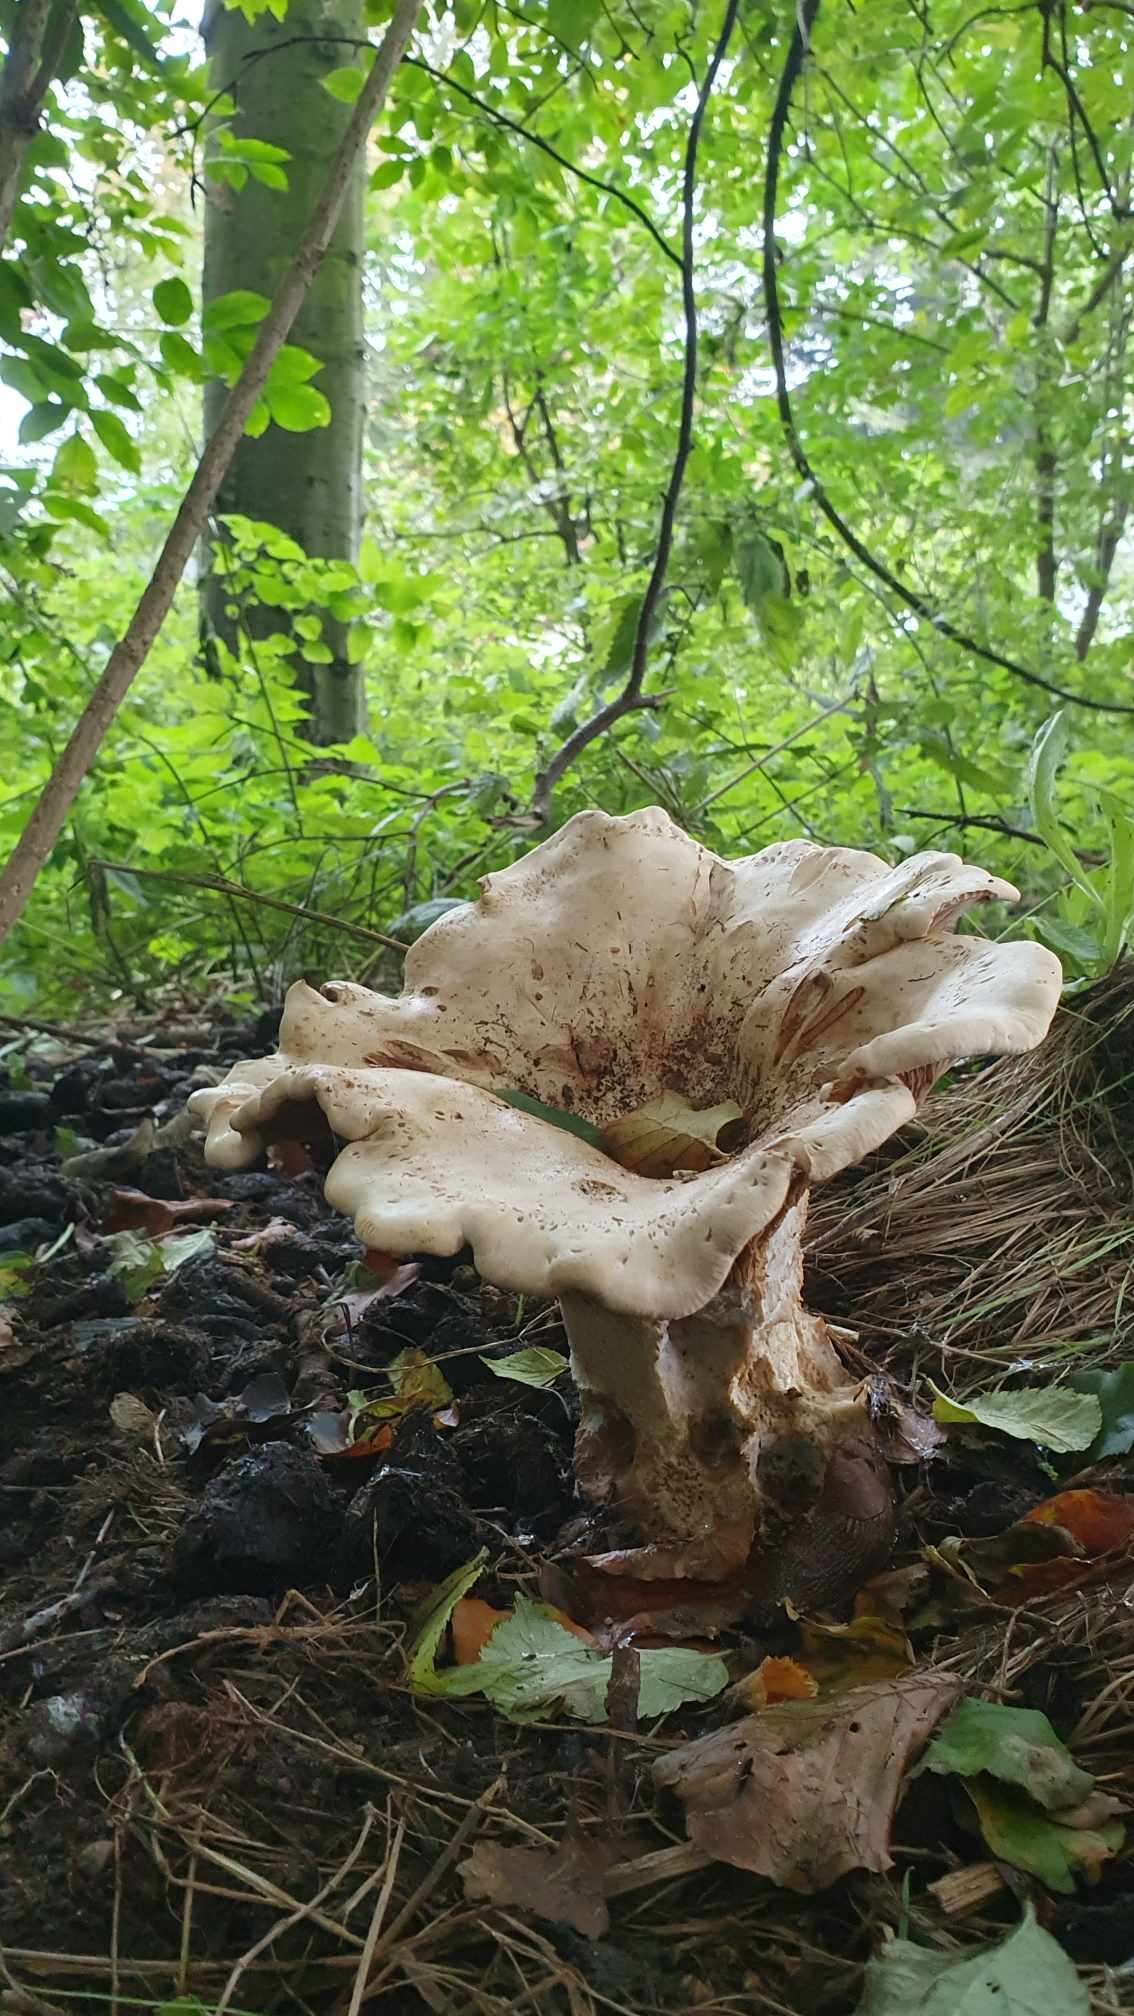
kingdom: Plantae
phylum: Bryophyta
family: Agaricomycetidae
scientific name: Agaricomycetidae
